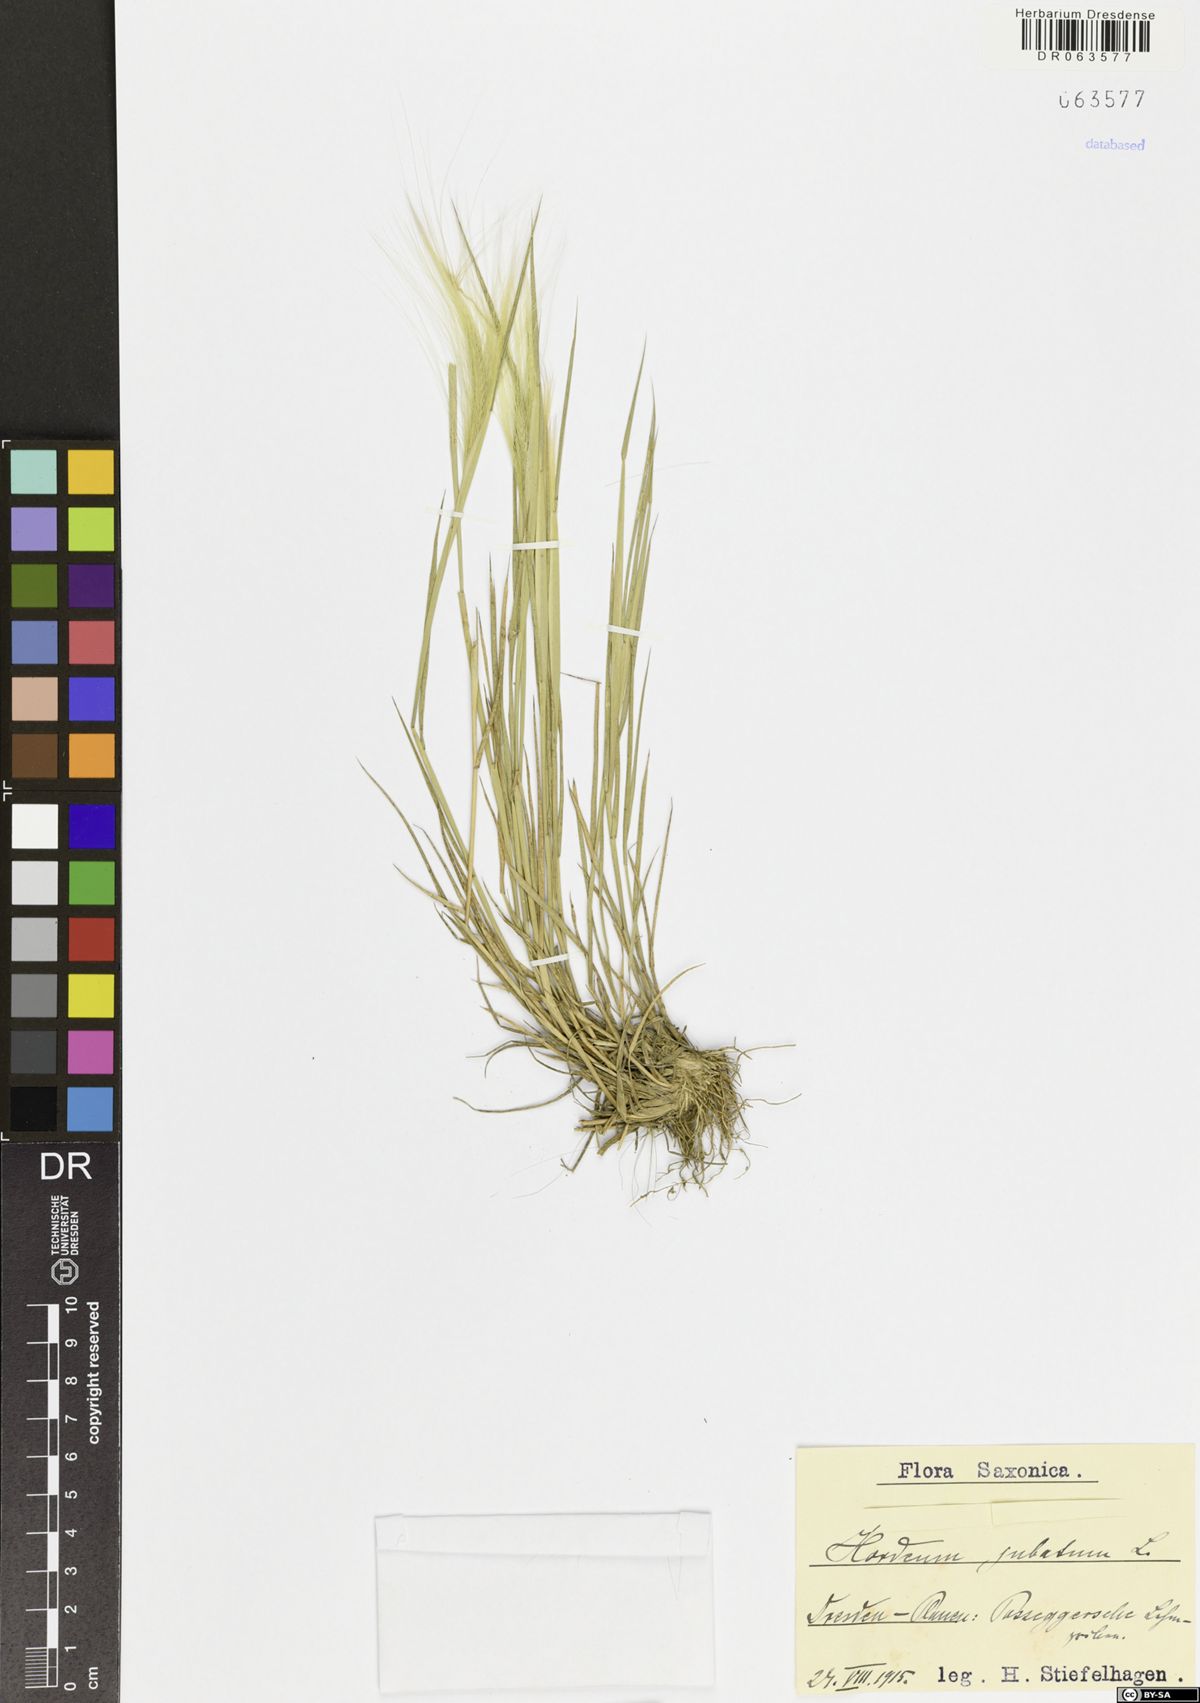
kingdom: Plantae
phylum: Tracheophyta
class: Liliopsida
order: Poales
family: Poaceae
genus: Hordeum
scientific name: Hordeum jubatum
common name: Foxtail barley
